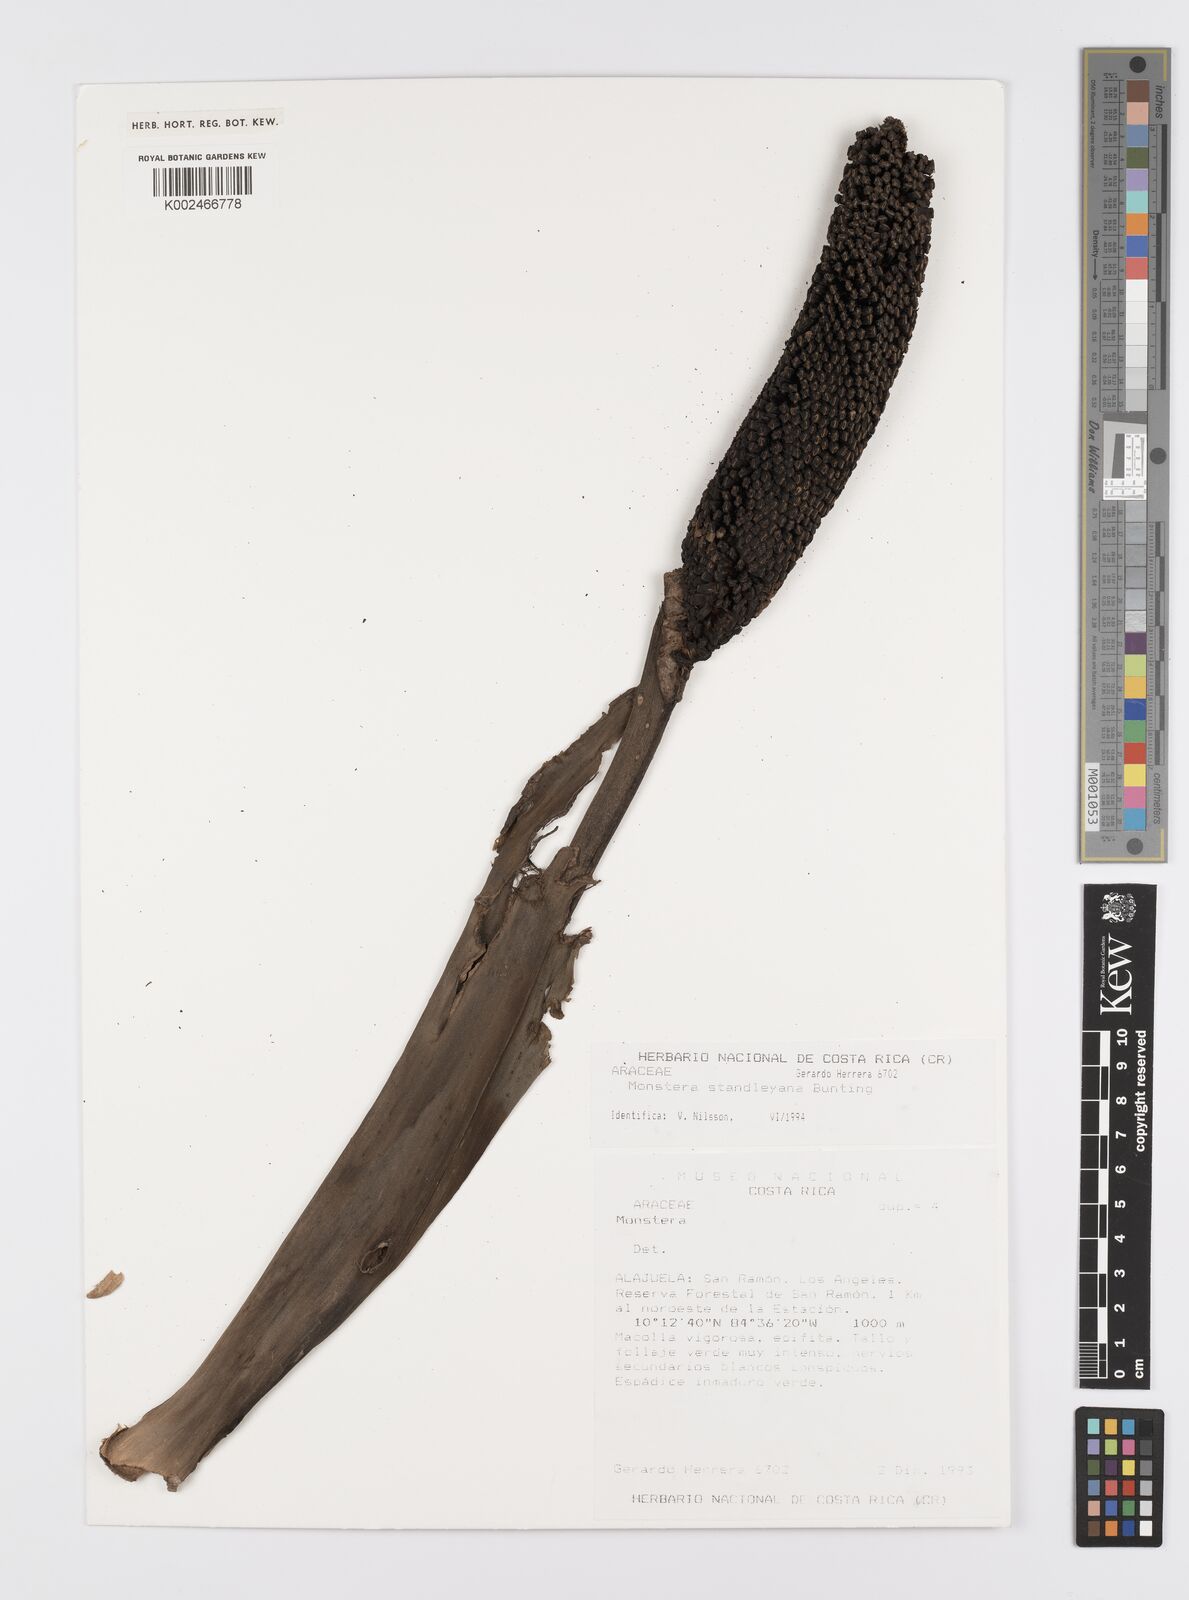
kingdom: Plantae
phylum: Tracheophyta
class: Liliopsida
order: Alismatales
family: Araceae
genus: Monstera
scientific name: Monstera standleyana
